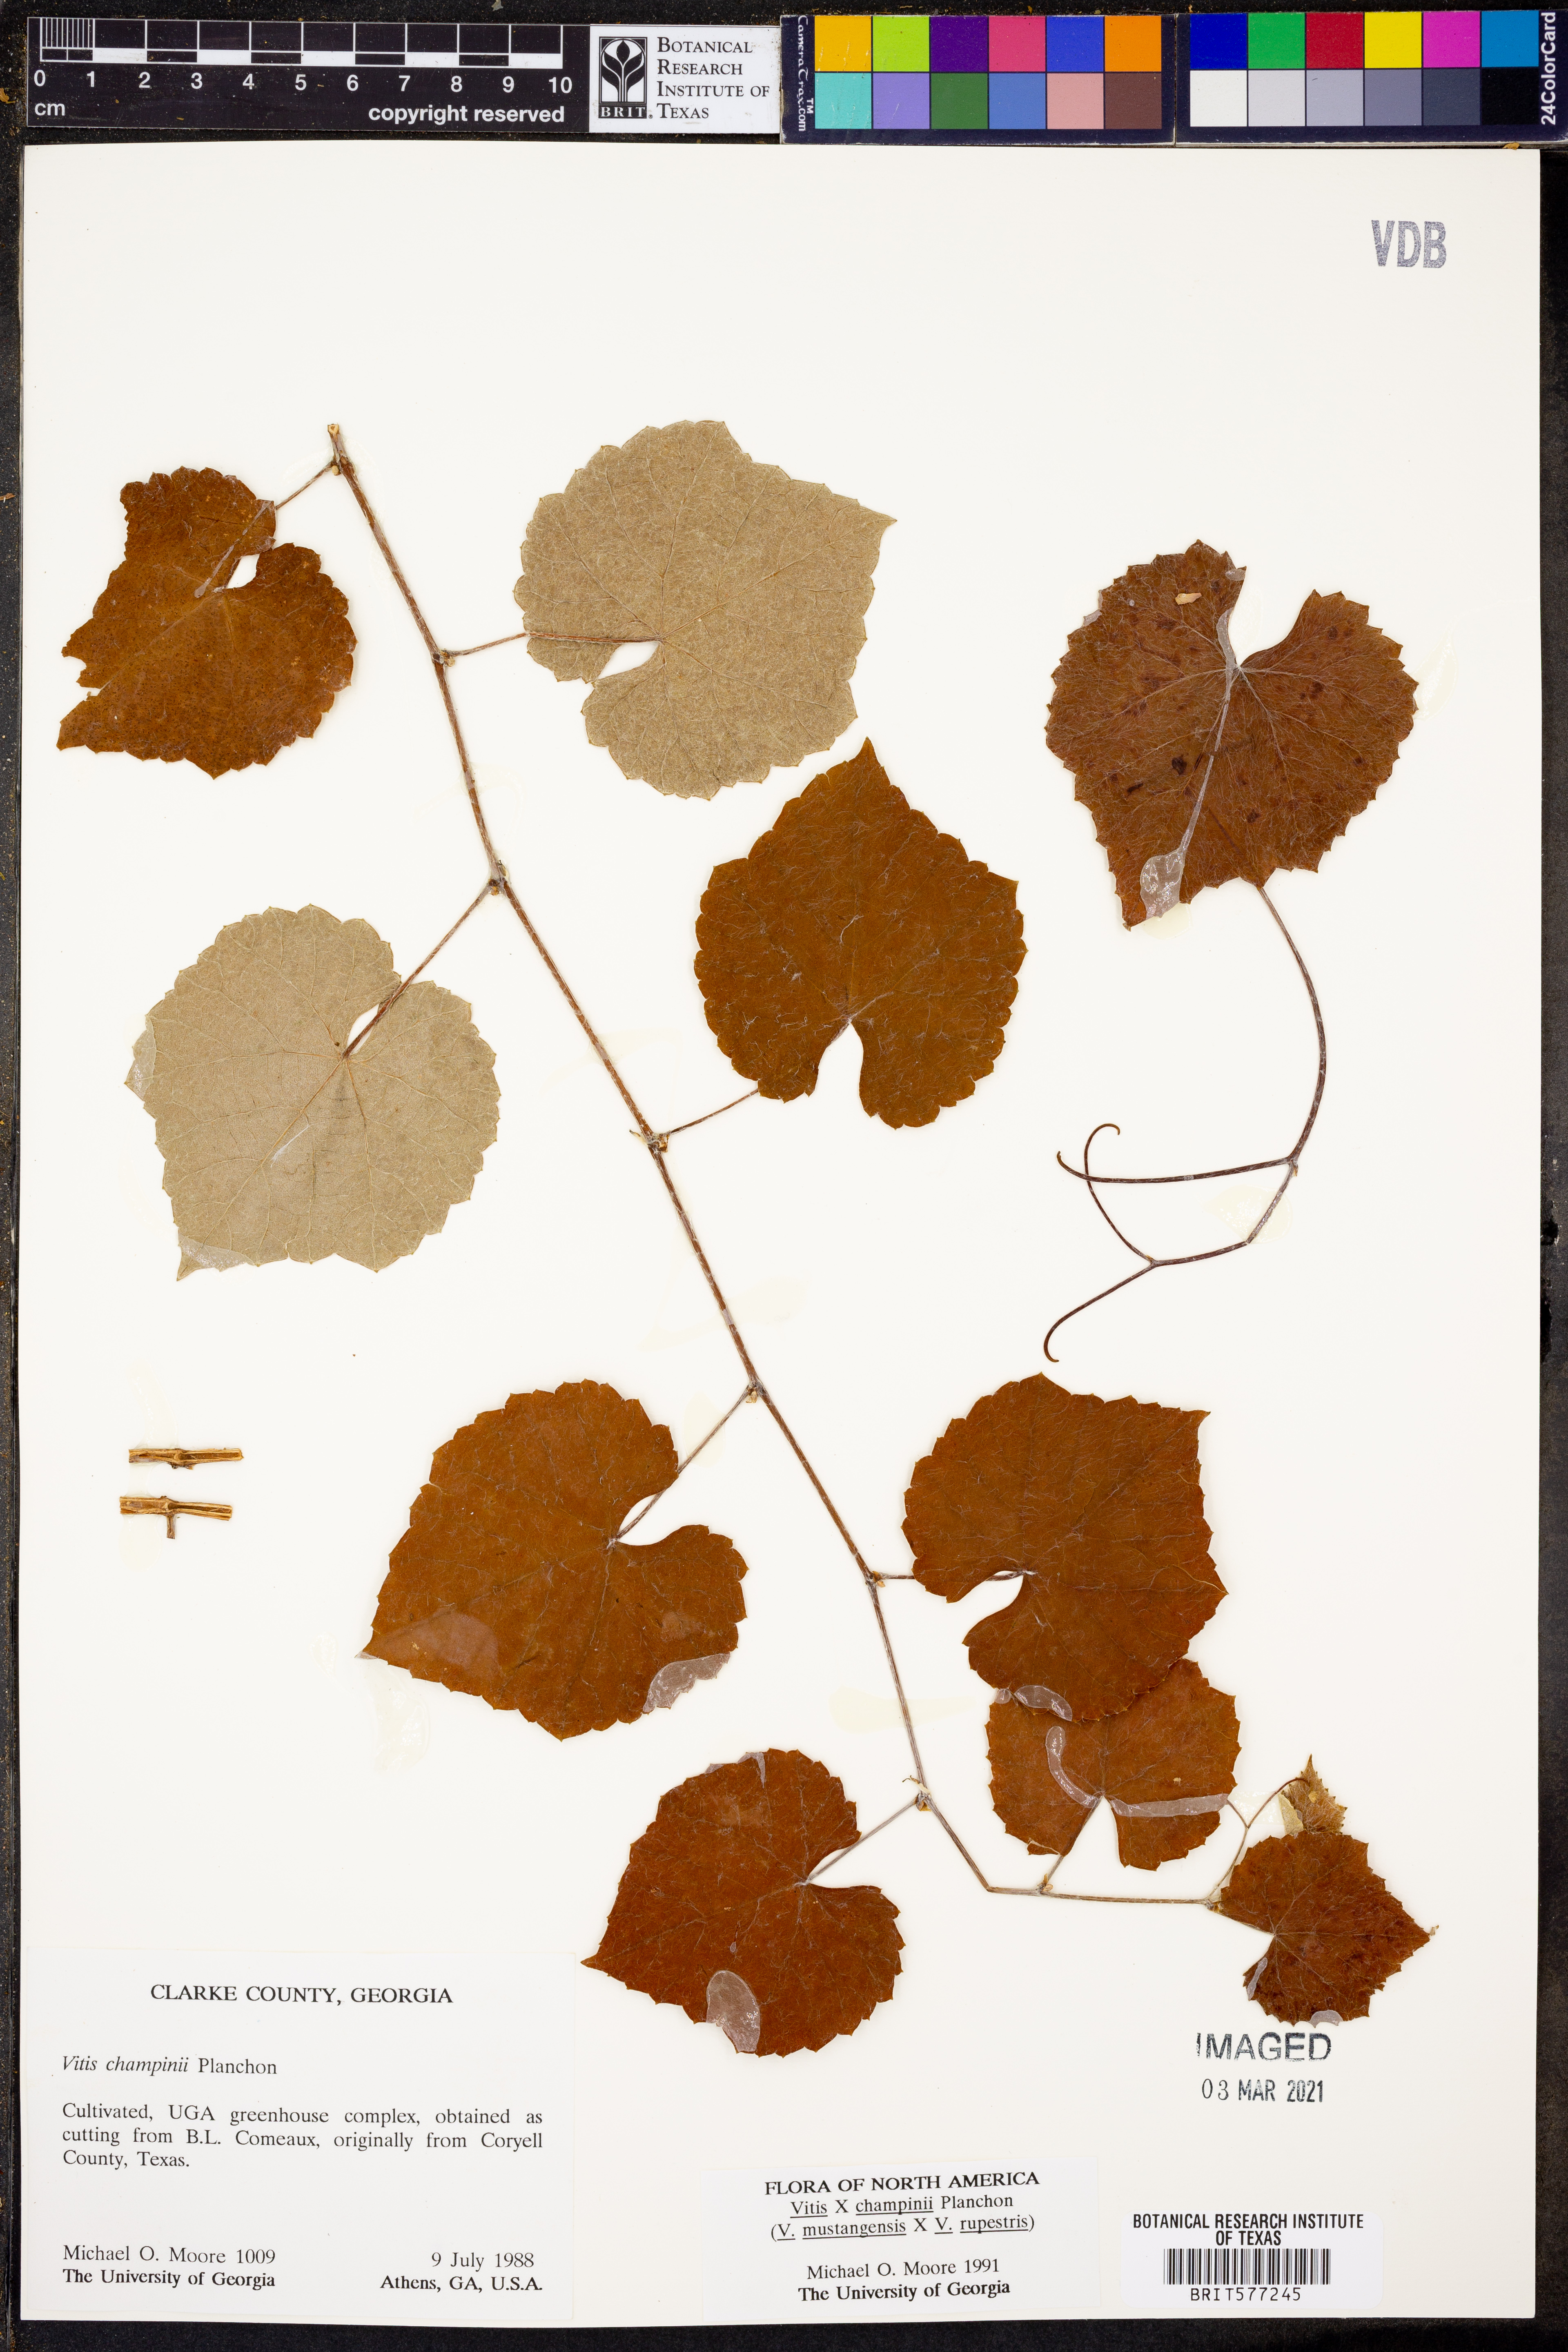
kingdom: Plantae
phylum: Tracheophyta
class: Magnoliopsida
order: Vitales
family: Vitaceae
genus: Vitis
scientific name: Vitis
